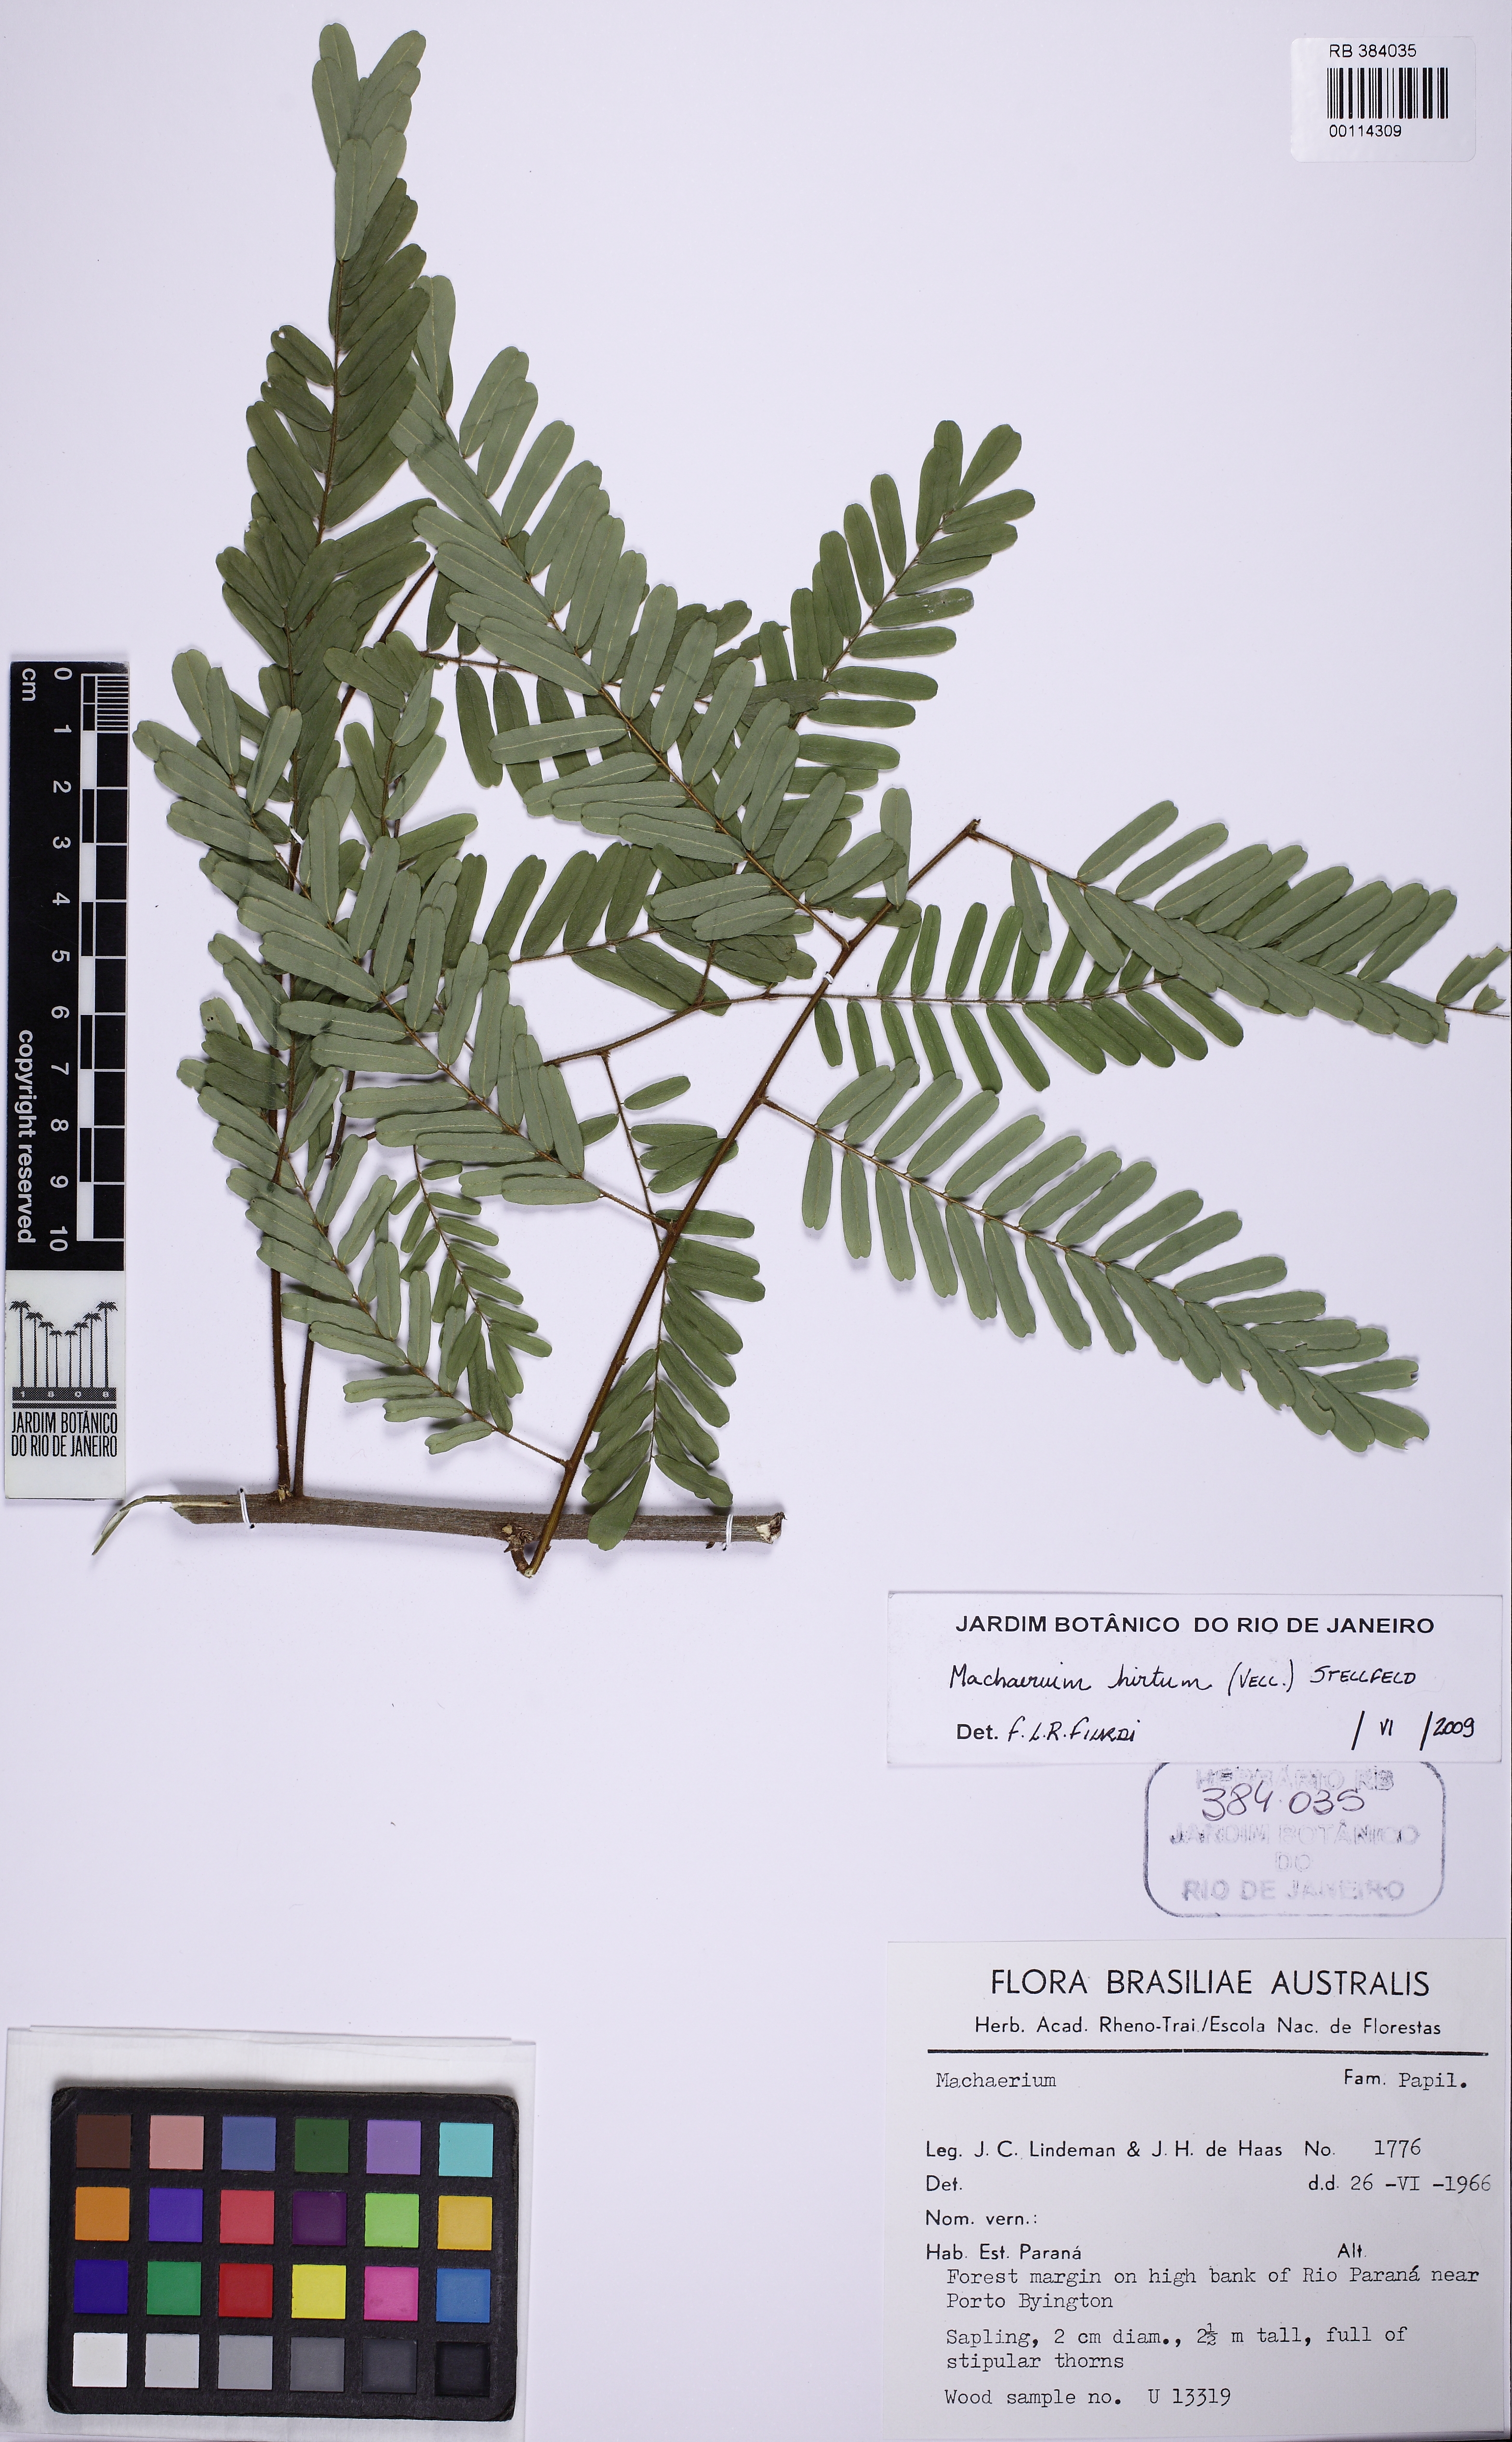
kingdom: Plantae
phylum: Tracheophyta
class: Magnoliopsida
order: Fabales
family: Fabaceae
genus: Machaerium
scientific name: Machaerium aculeatum
